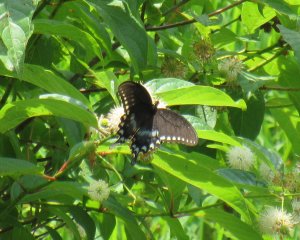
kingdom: Animalia
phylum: Arthropoda
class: Insecta
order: Lepidoptera
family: Papilionidae
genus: Pterourus
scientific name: Pterourus troilus
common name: Spicebush Swallowtail
